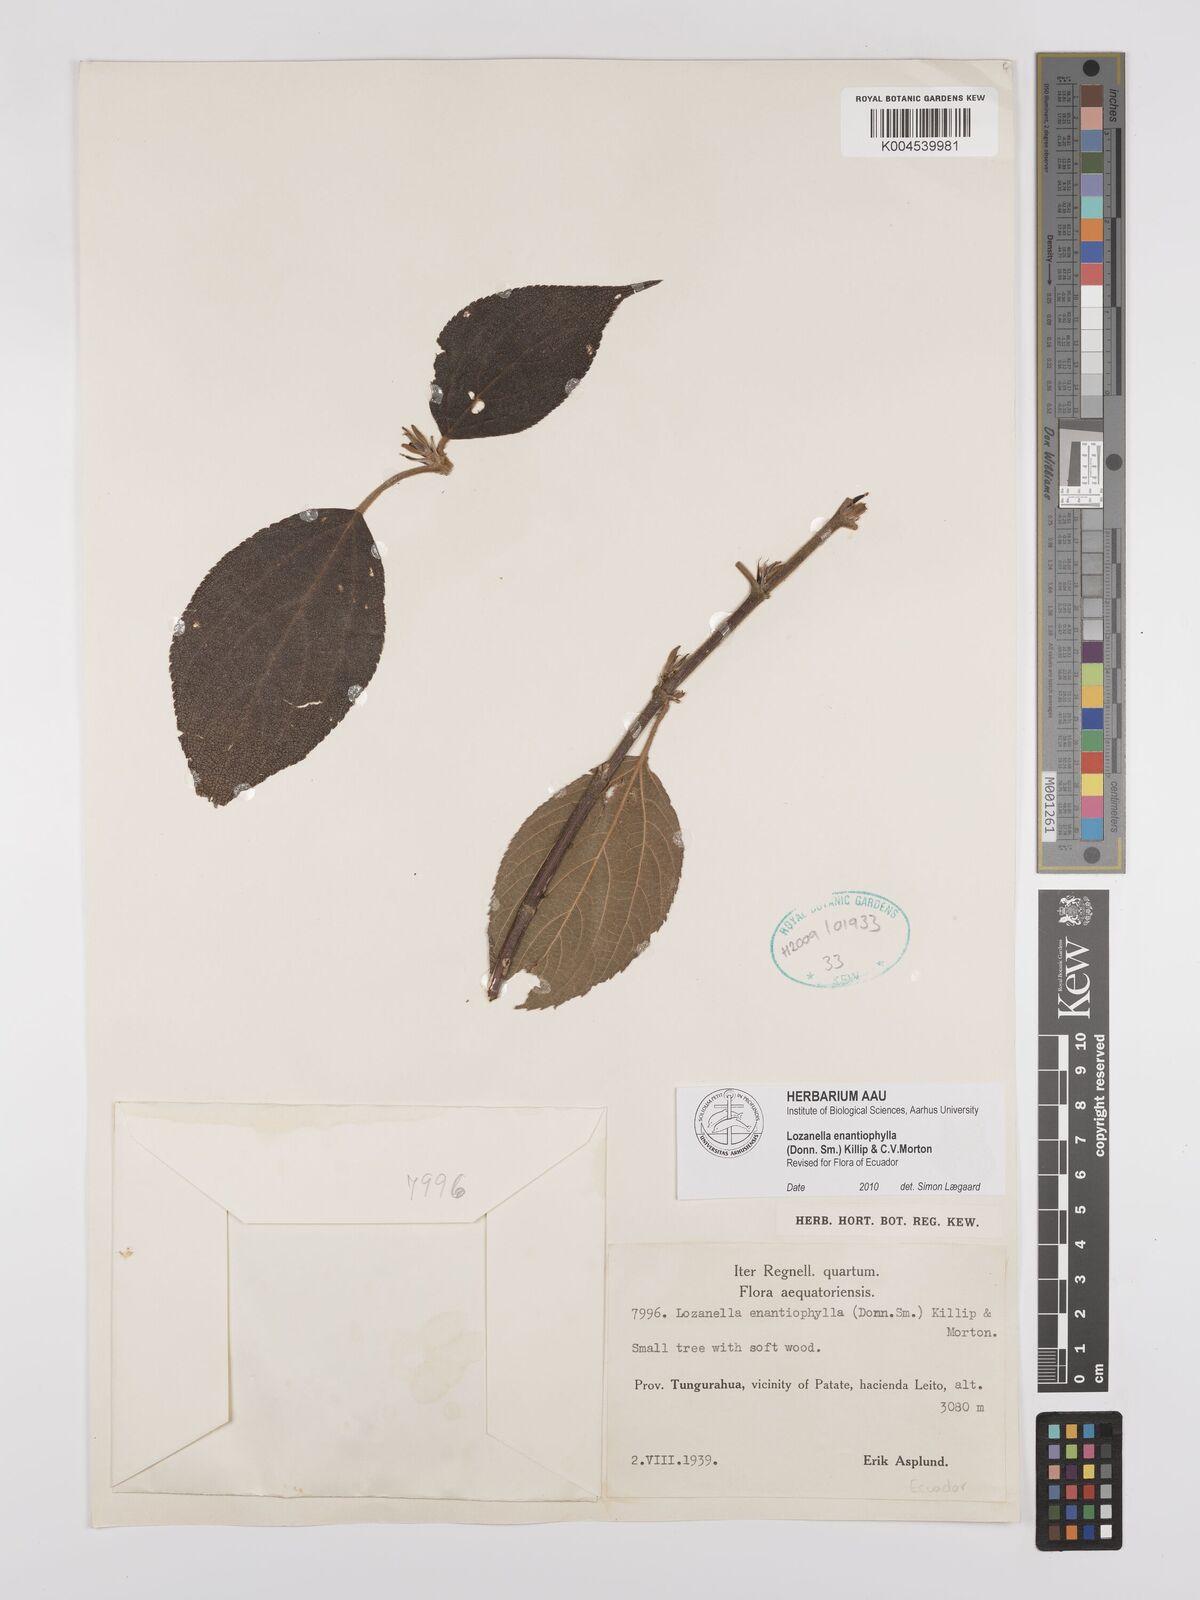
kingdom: Plantae
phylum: Tracheophyta
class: Magnoliopsida
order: Rosales
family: Cannabaceae
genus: Lozanella
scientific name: Lozanella enantiophylla
